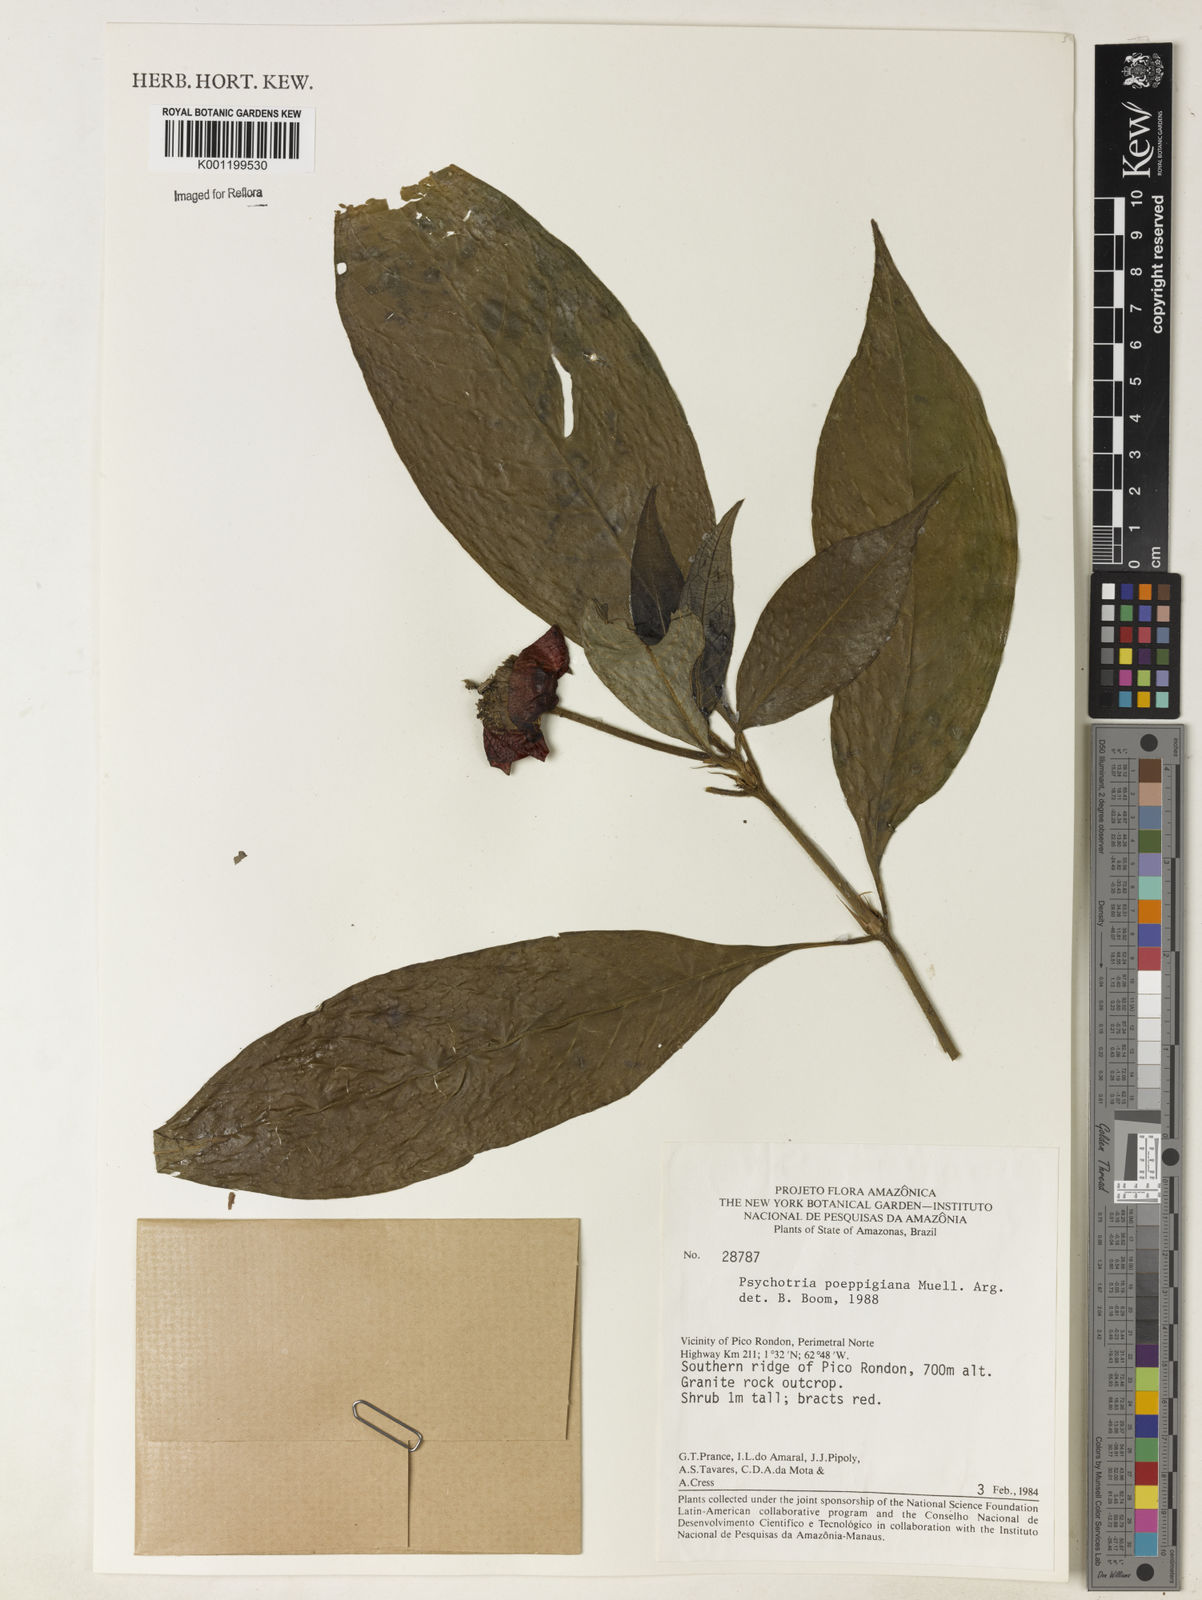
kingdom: Plantae
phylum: Tracheophyta
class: Magnoliopsida
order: Gentianales
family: Rubiaceae
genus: Psychotria
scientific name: Psychotria
